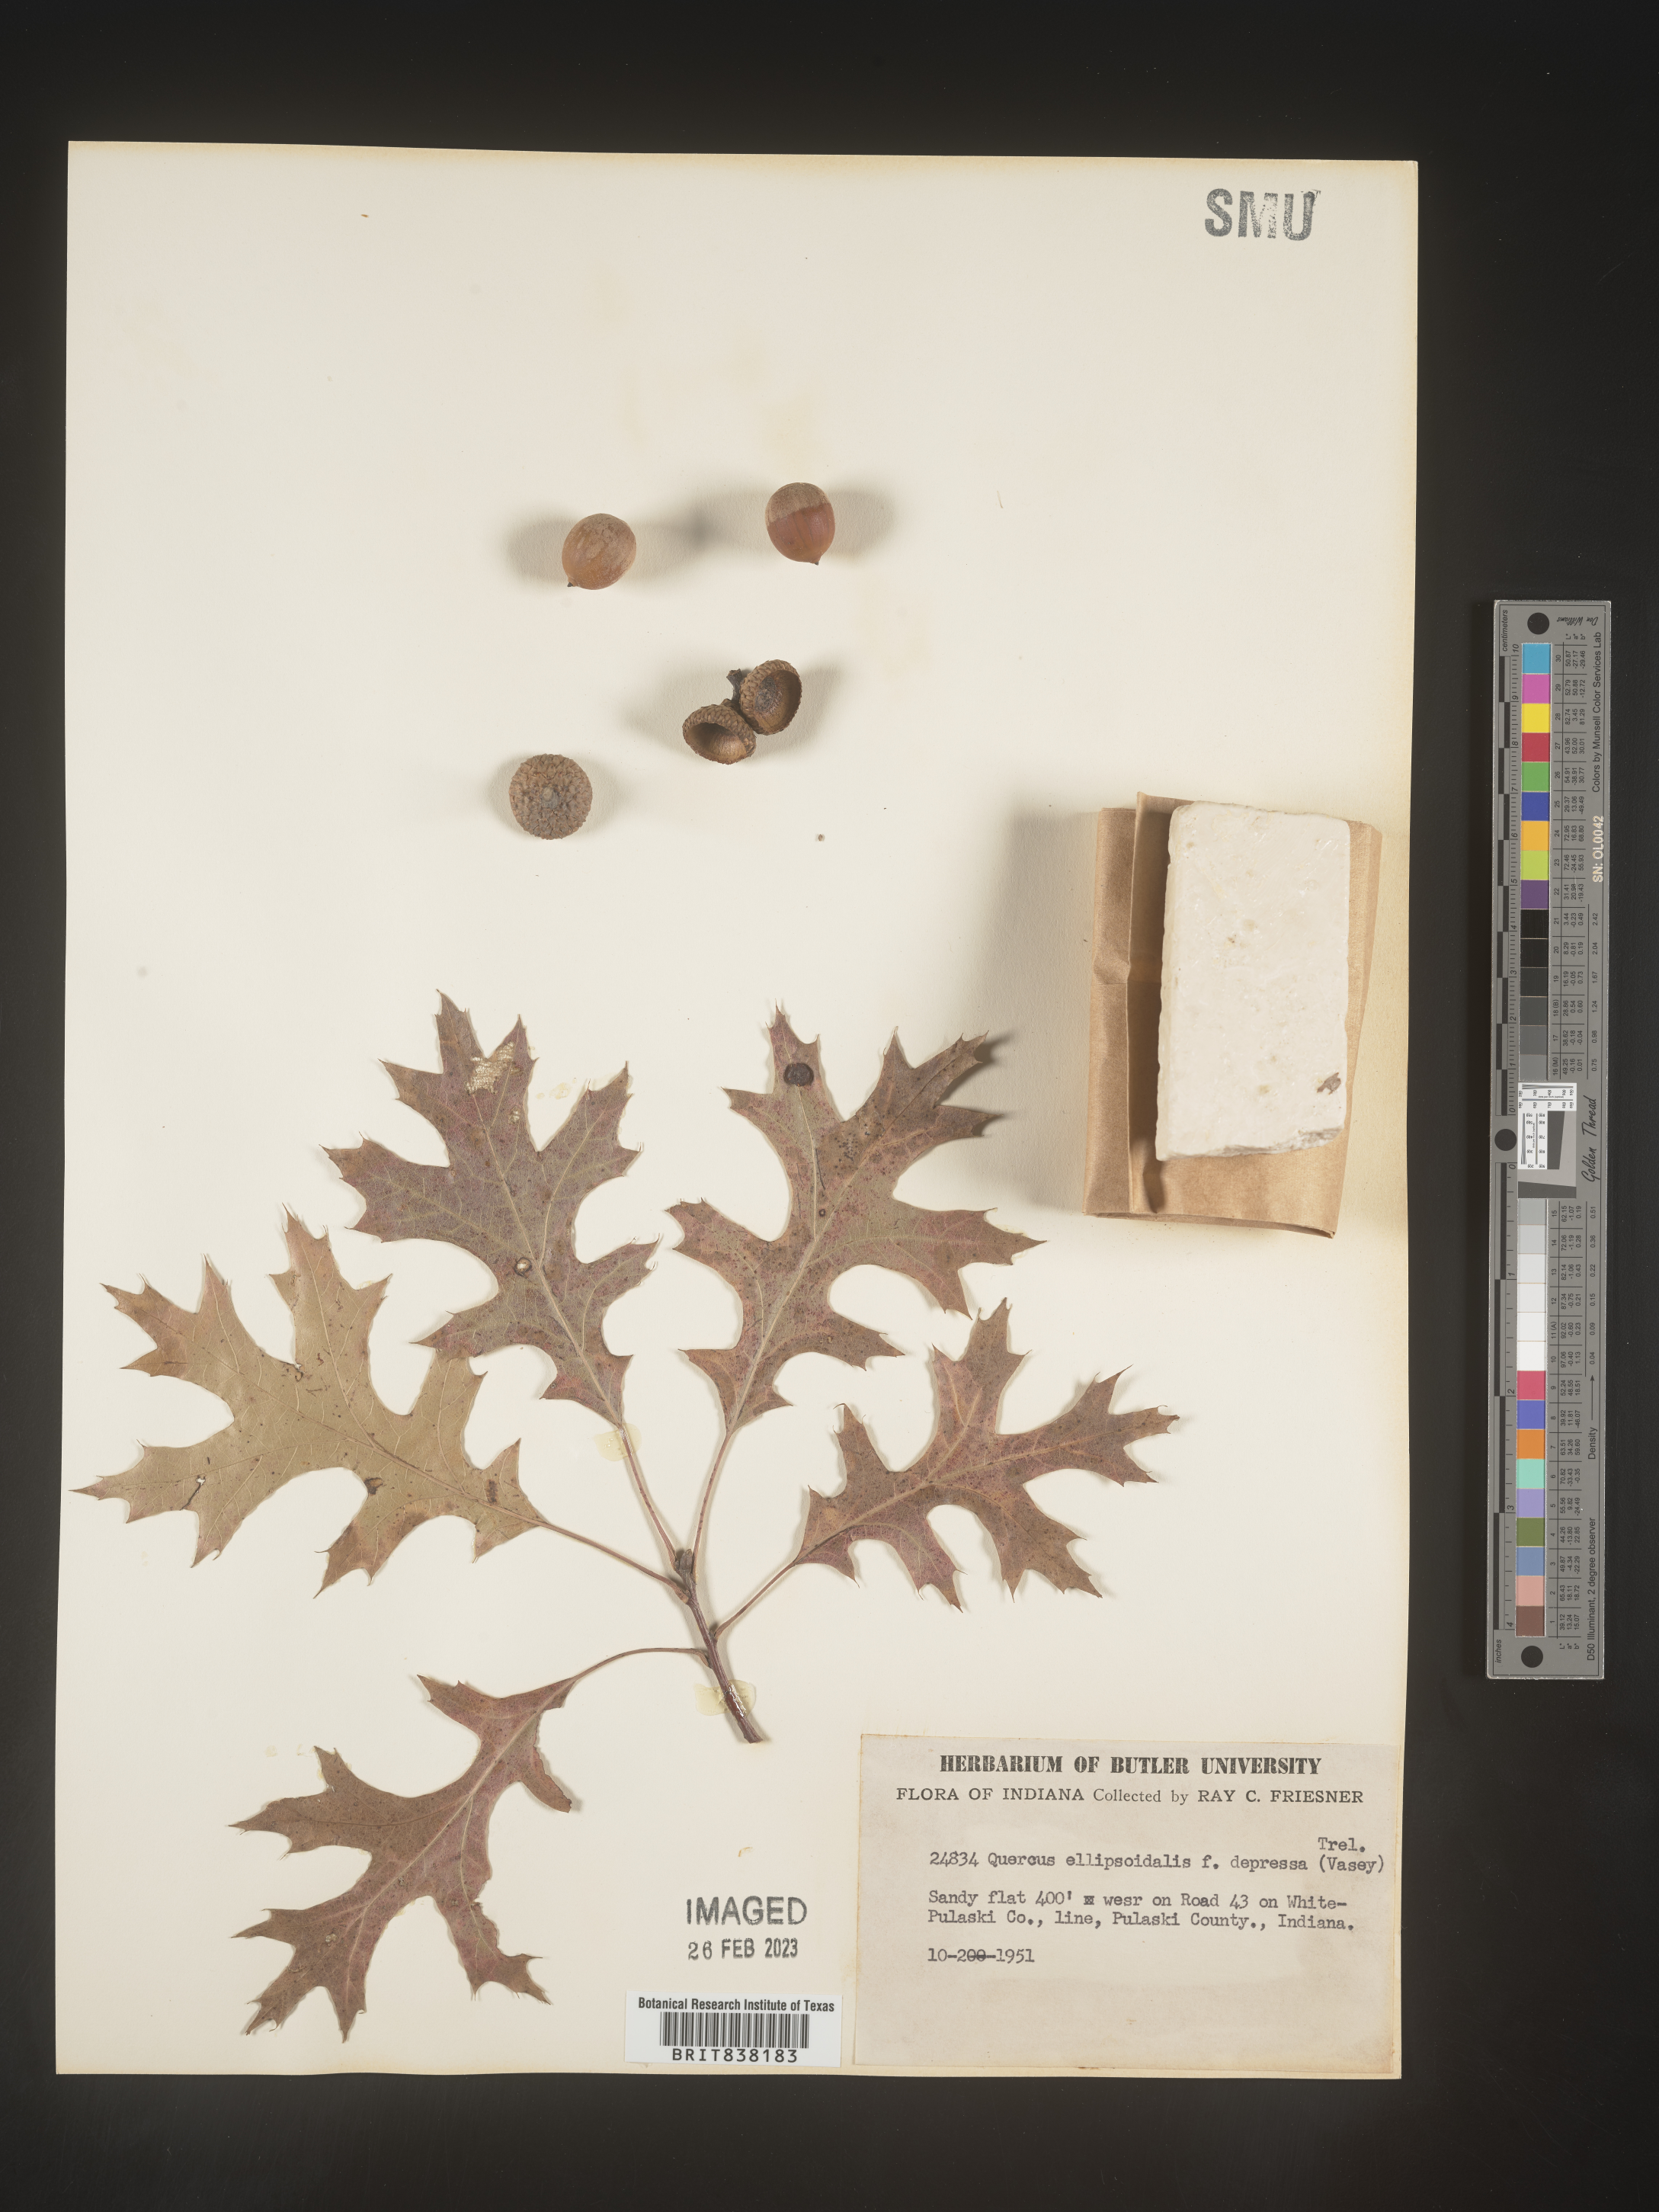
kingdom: Plantae
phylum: Tracheophyta
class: Magnoliopsida
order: Fagales
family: Fagaceae
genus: Quercus
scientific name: Quercus ellipsoidalis
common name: Hill's oak
